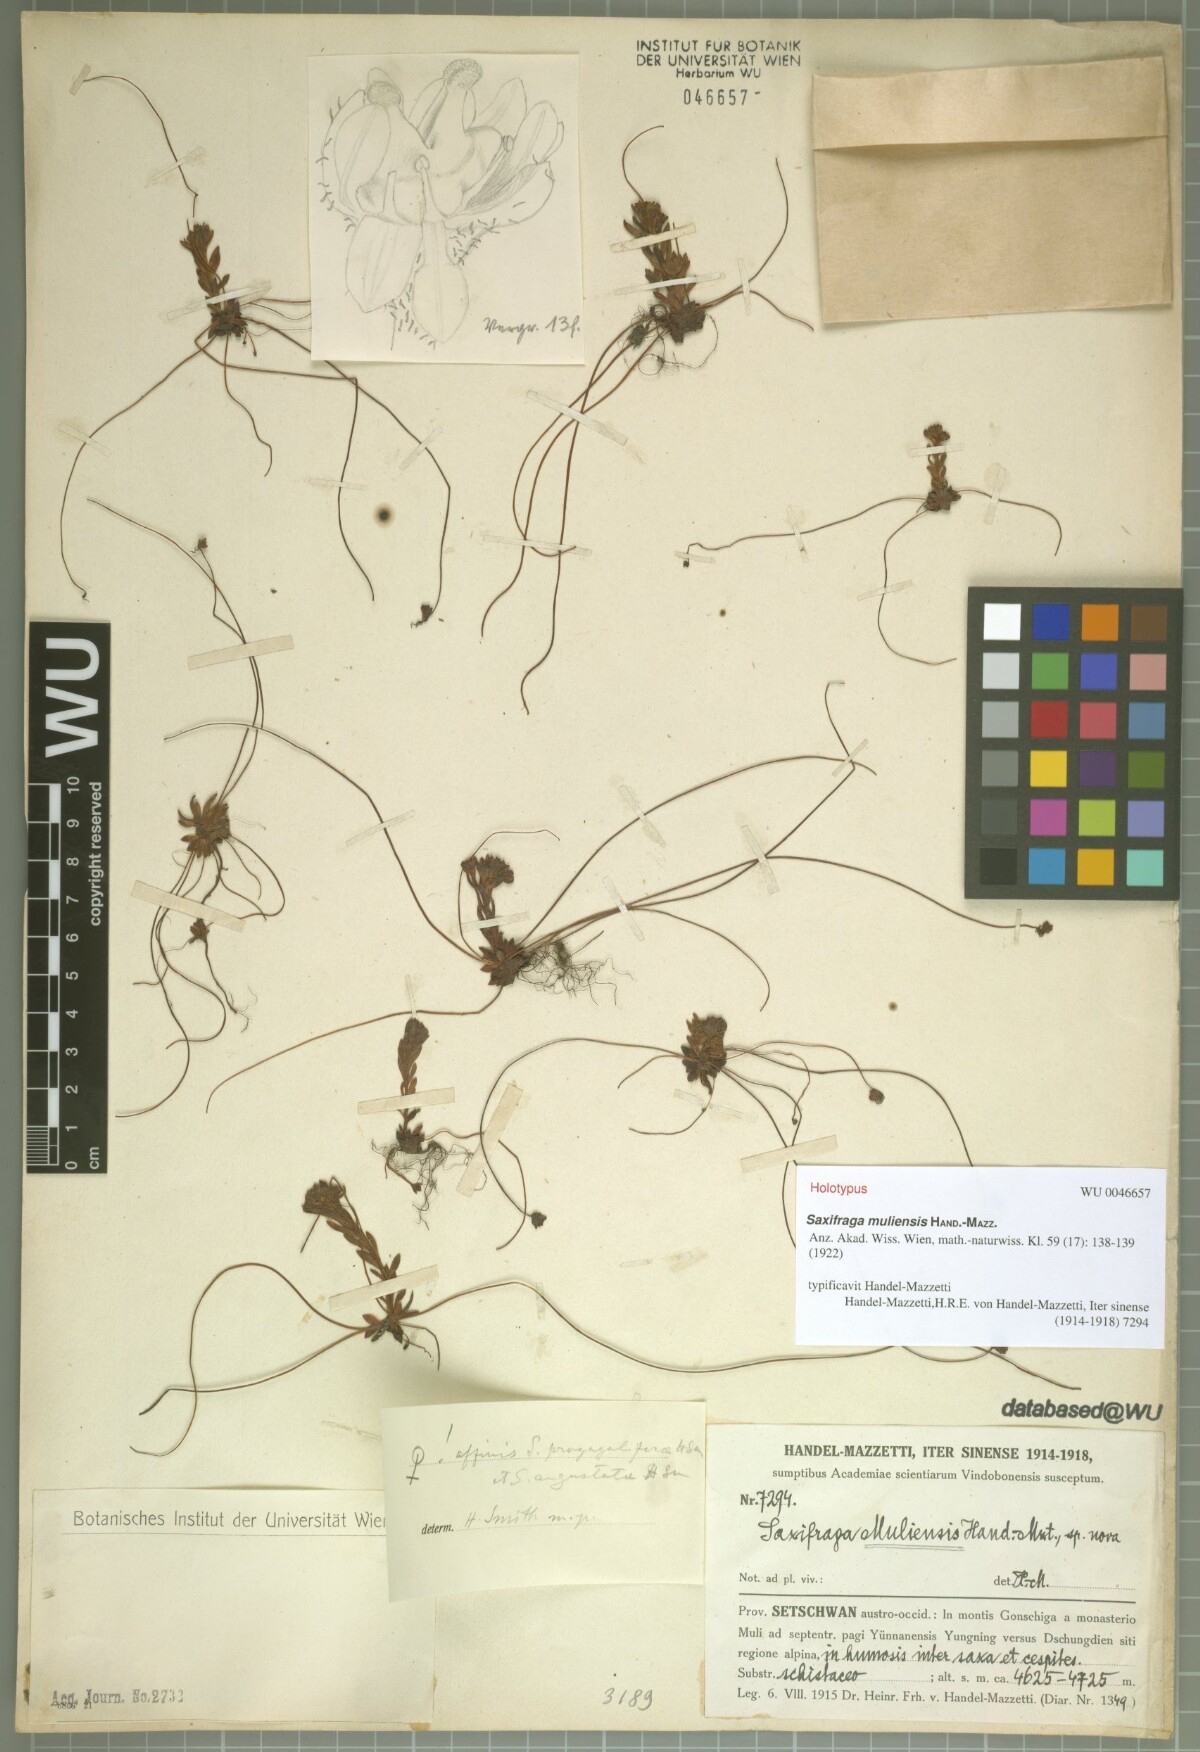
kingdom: Plantae
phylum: Tracheophyta
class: Magnoliopsida
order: Saxifragales
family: Saxifragaceae
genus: Saxifraga
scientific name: Saxifraga consanguinea
